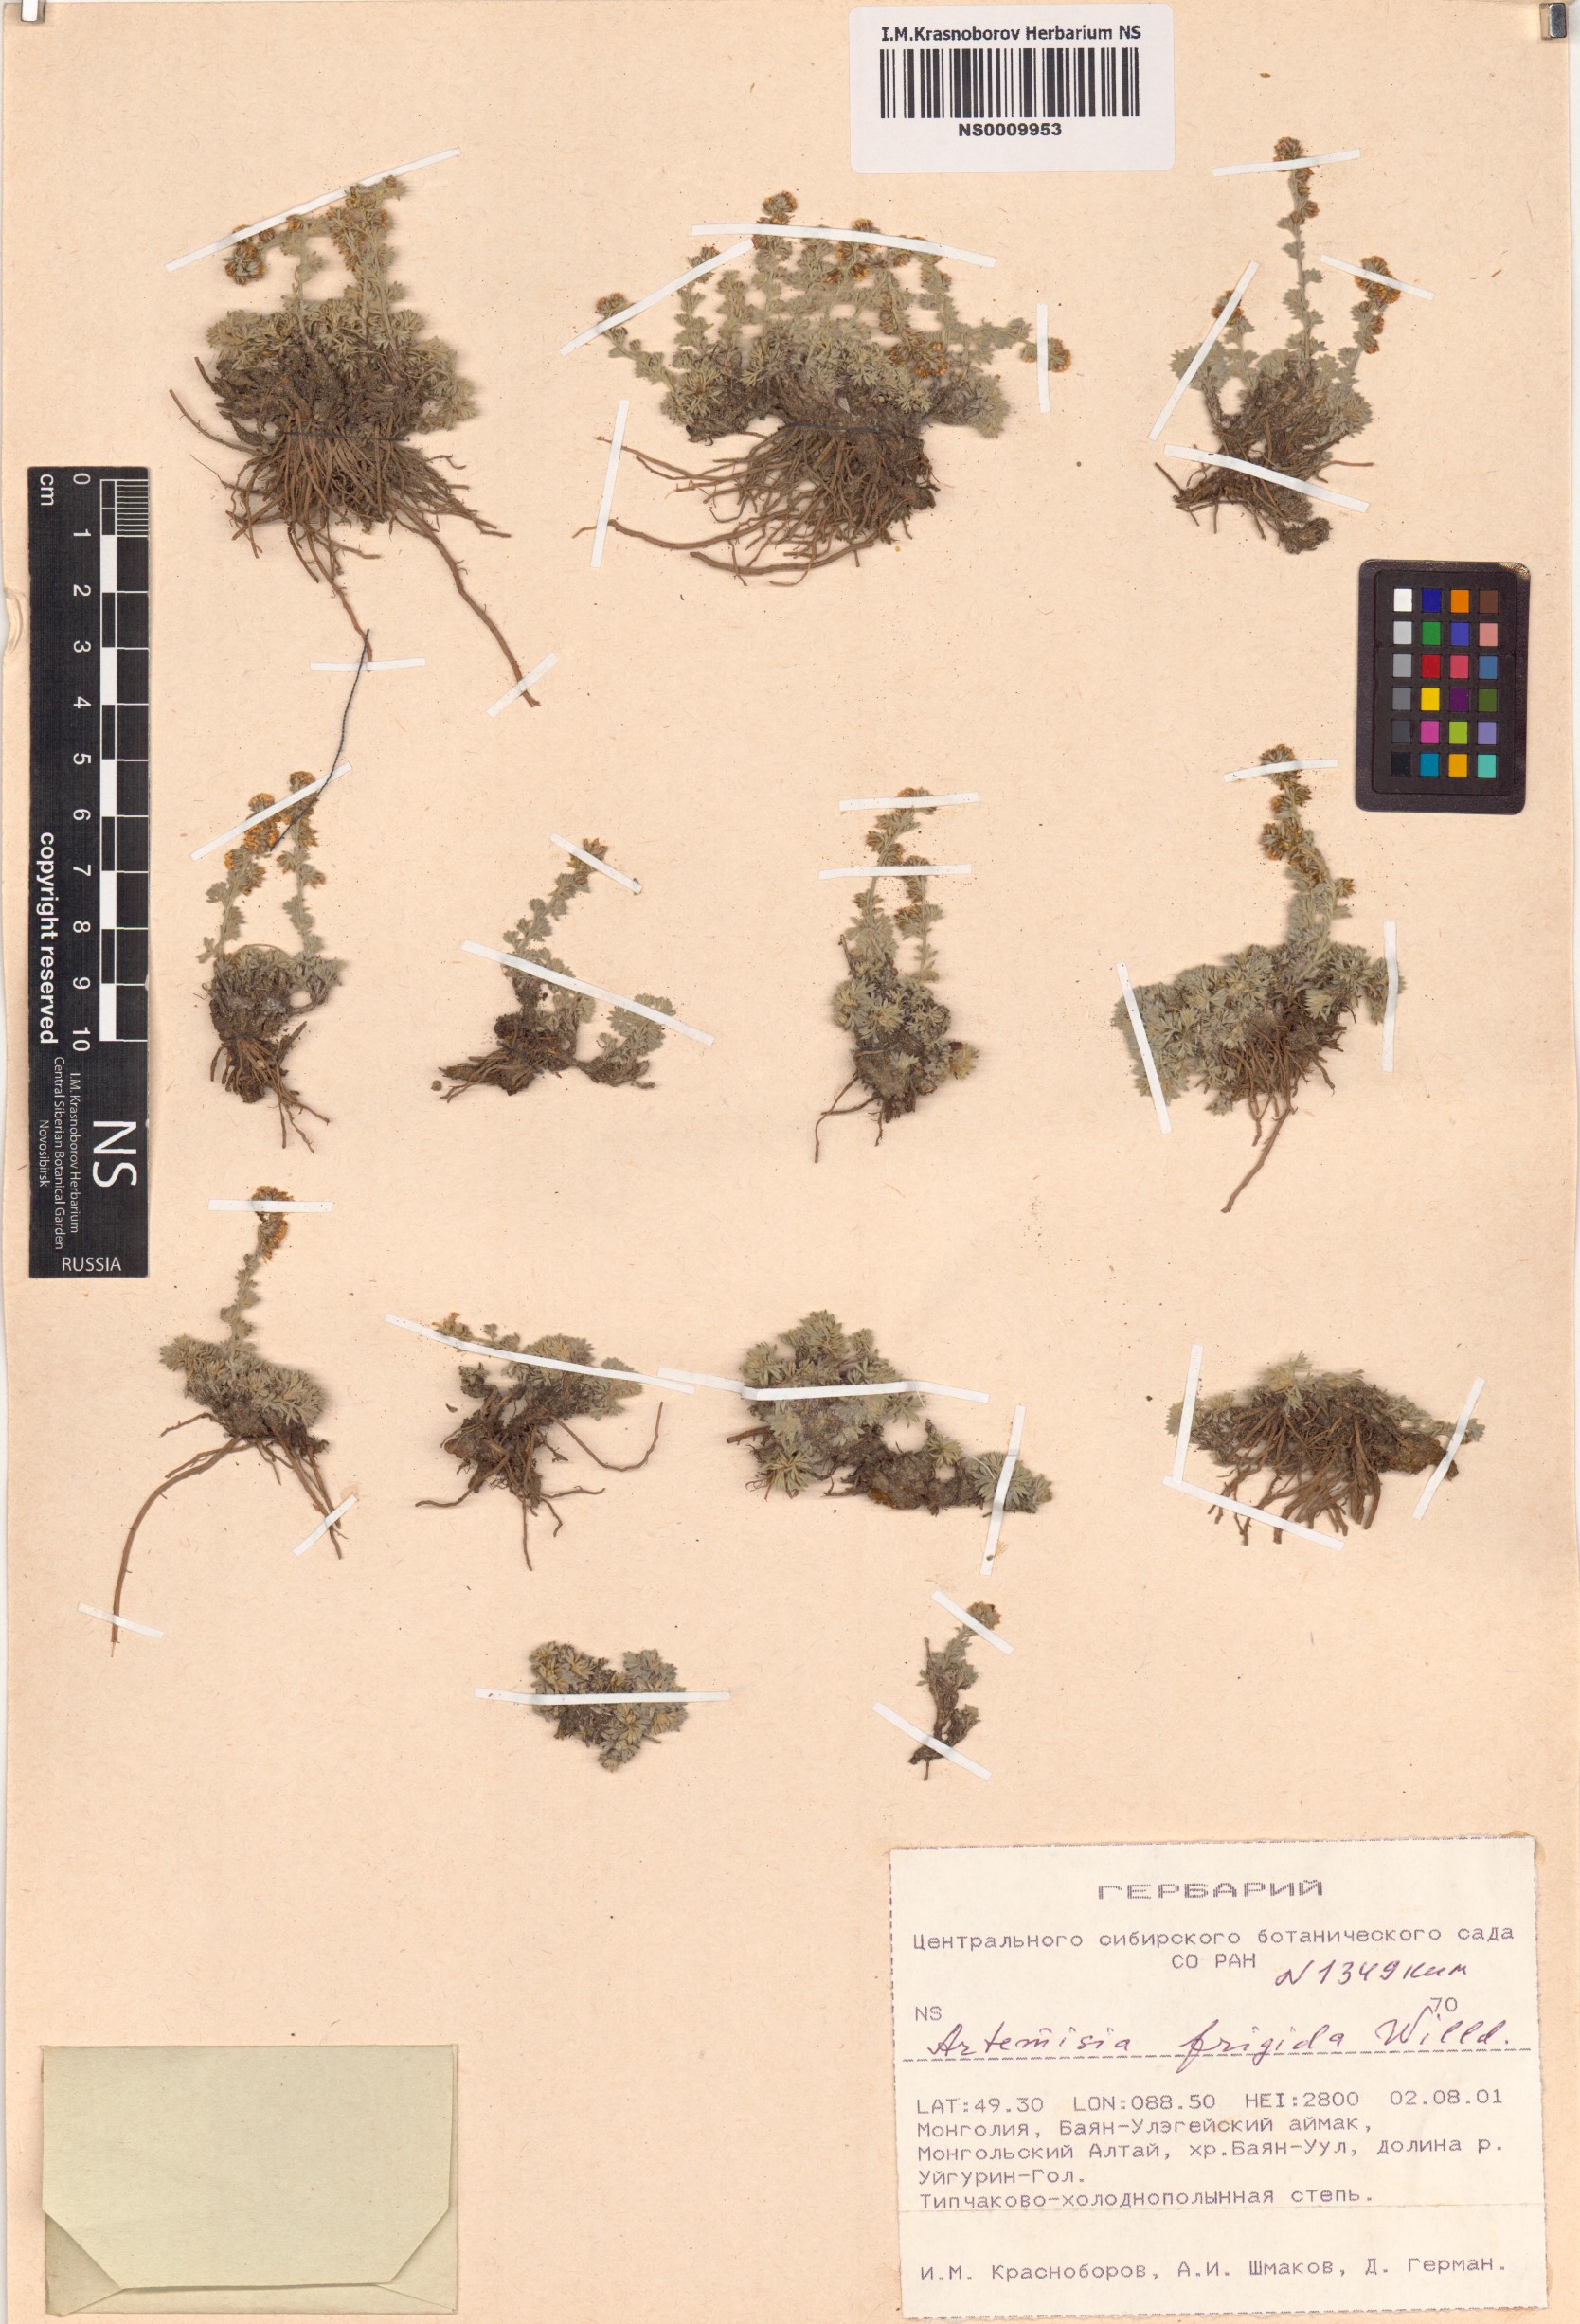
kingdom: Plantae
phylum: Tracheophyta
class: Magnoliopsida
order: Asterales
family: Asteraceae
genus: Artemisia
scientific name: Artemisia frigida
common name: Prairie sagewort
